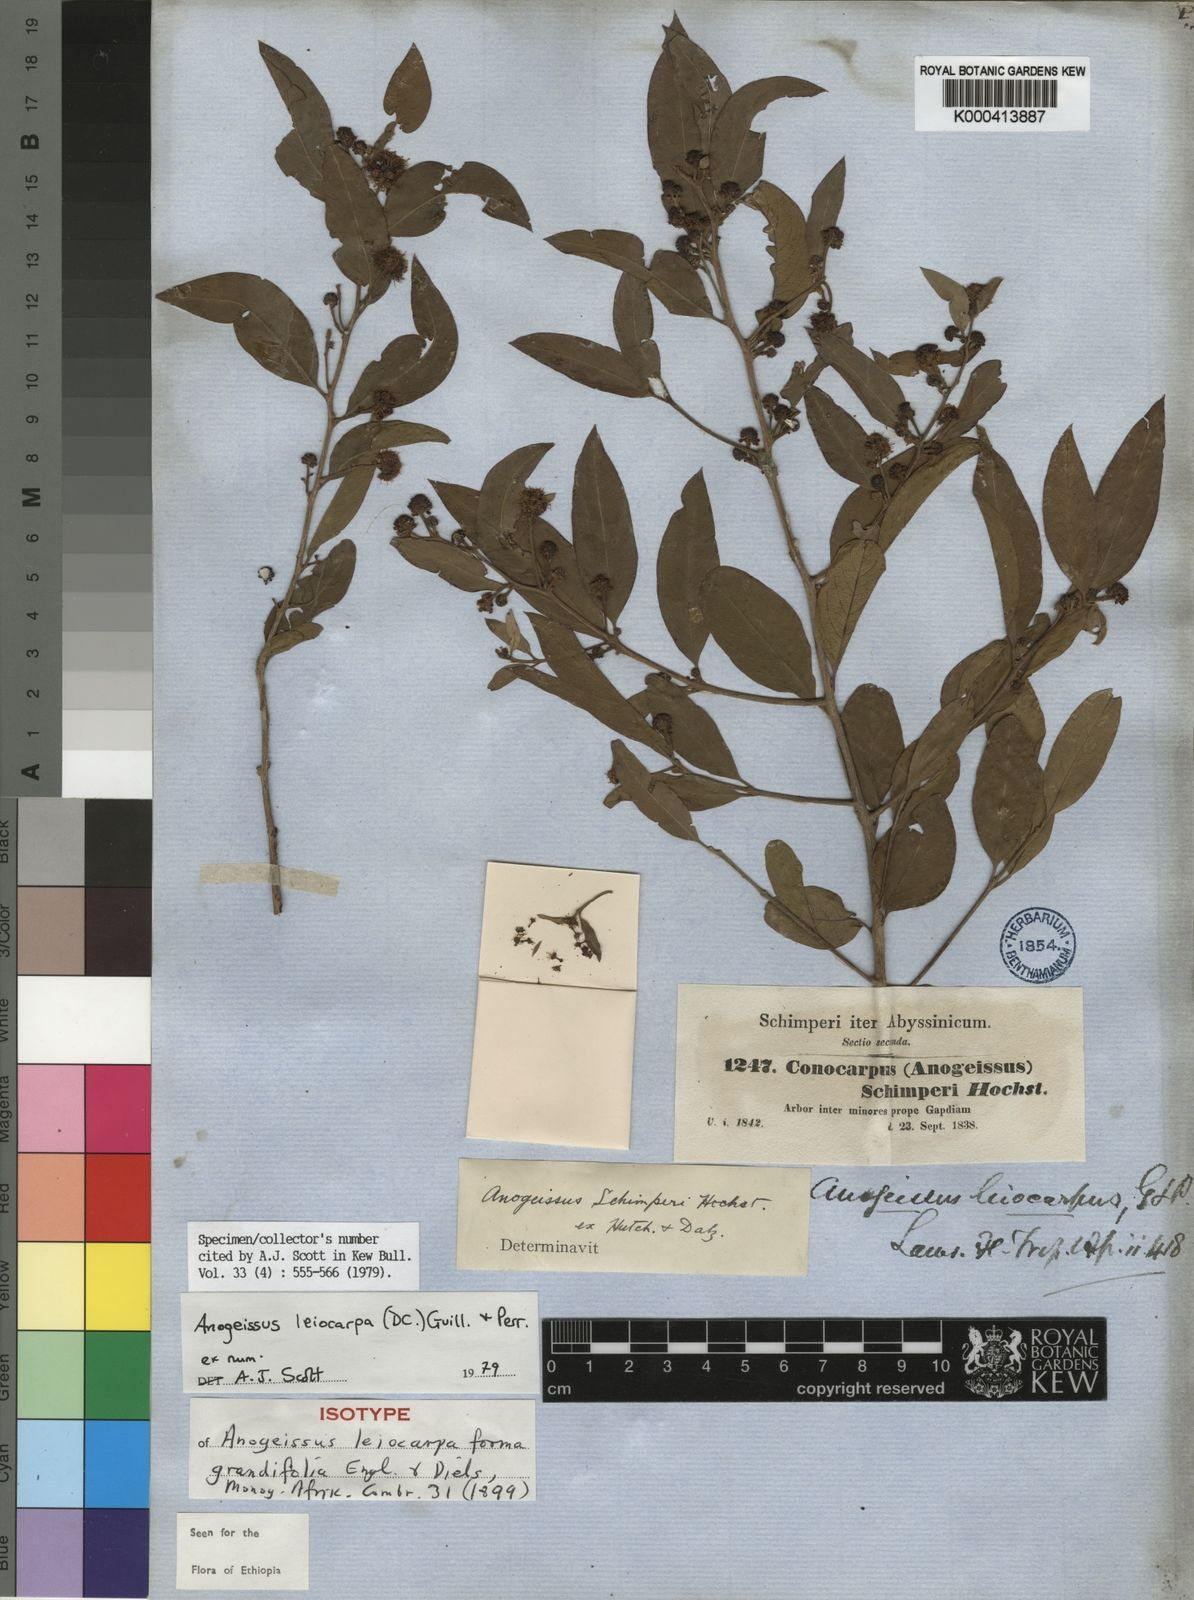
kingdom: Plantae
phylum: Tracheophyta
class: Magnoliopsida
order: Myrtales
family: Combretaceae
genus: Terminalia
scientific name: Terminalia leiocarpa
